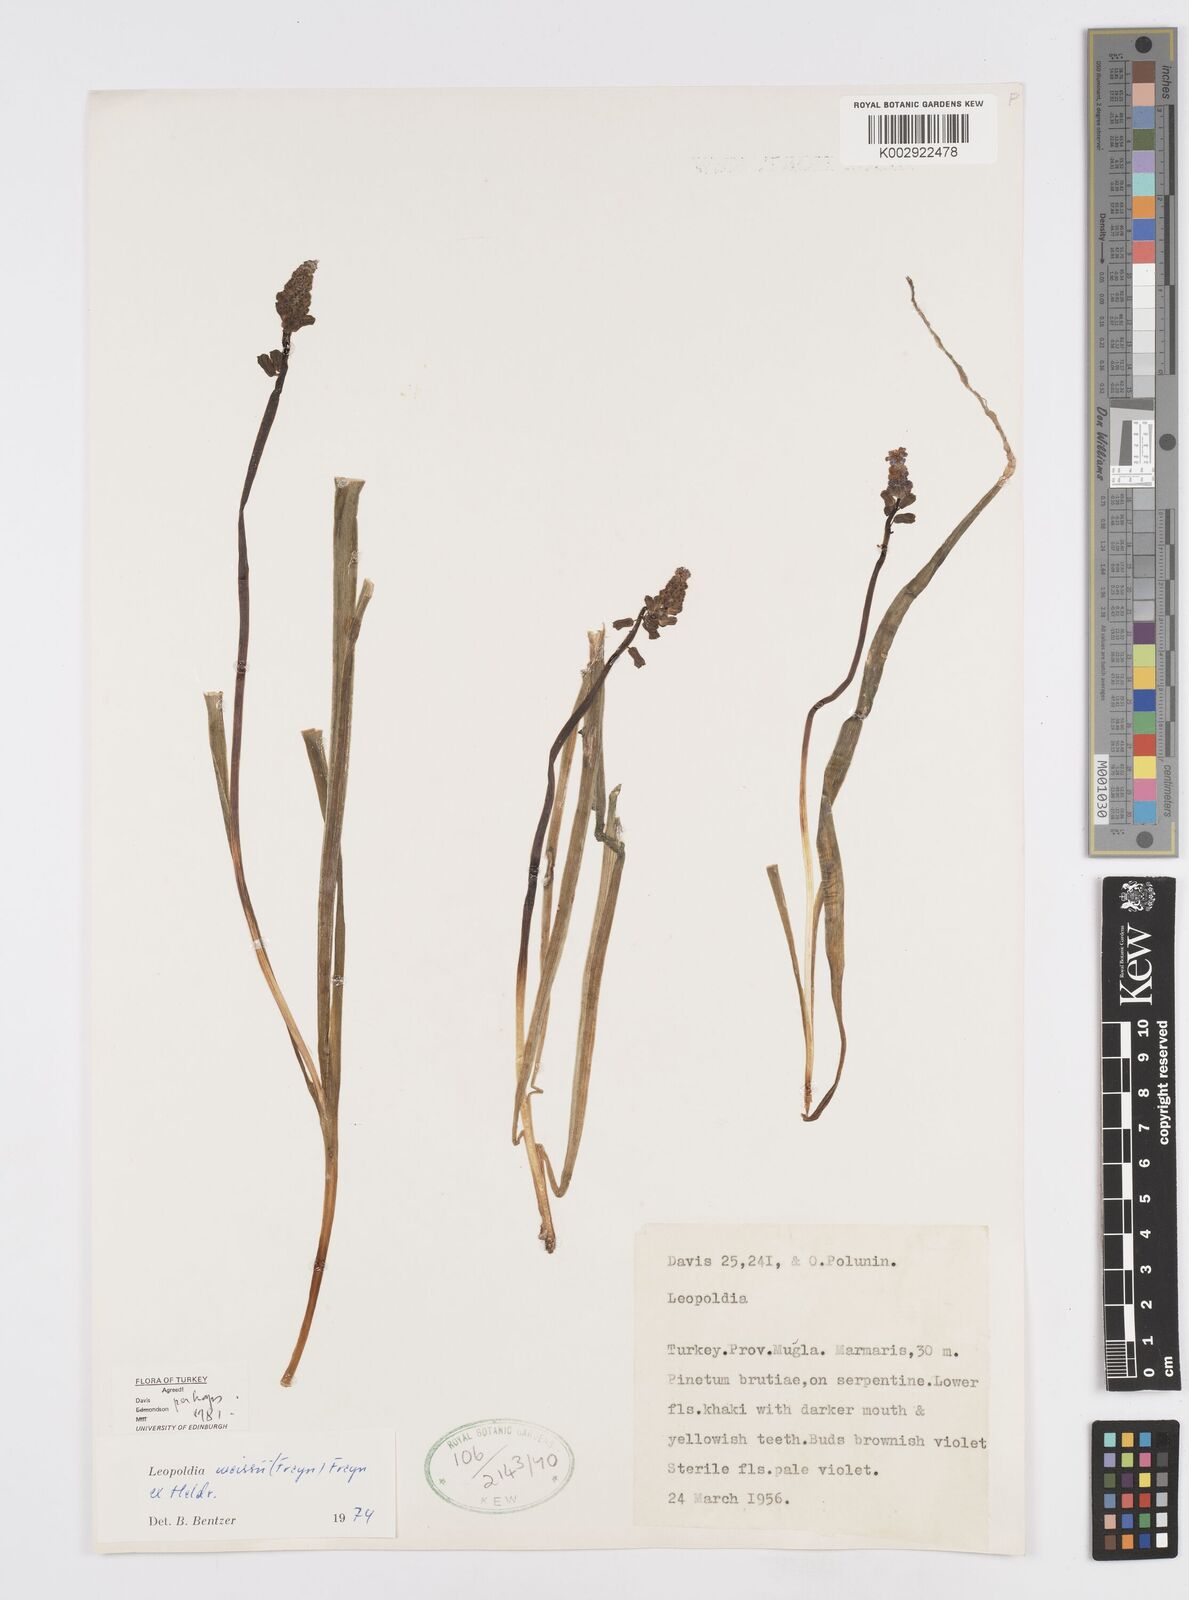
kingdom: Plantae
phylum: Tracheophyta
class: Liliopsida
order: Asparagales
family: Asparagaceae
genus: Muscari
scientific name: Muscari weissii
